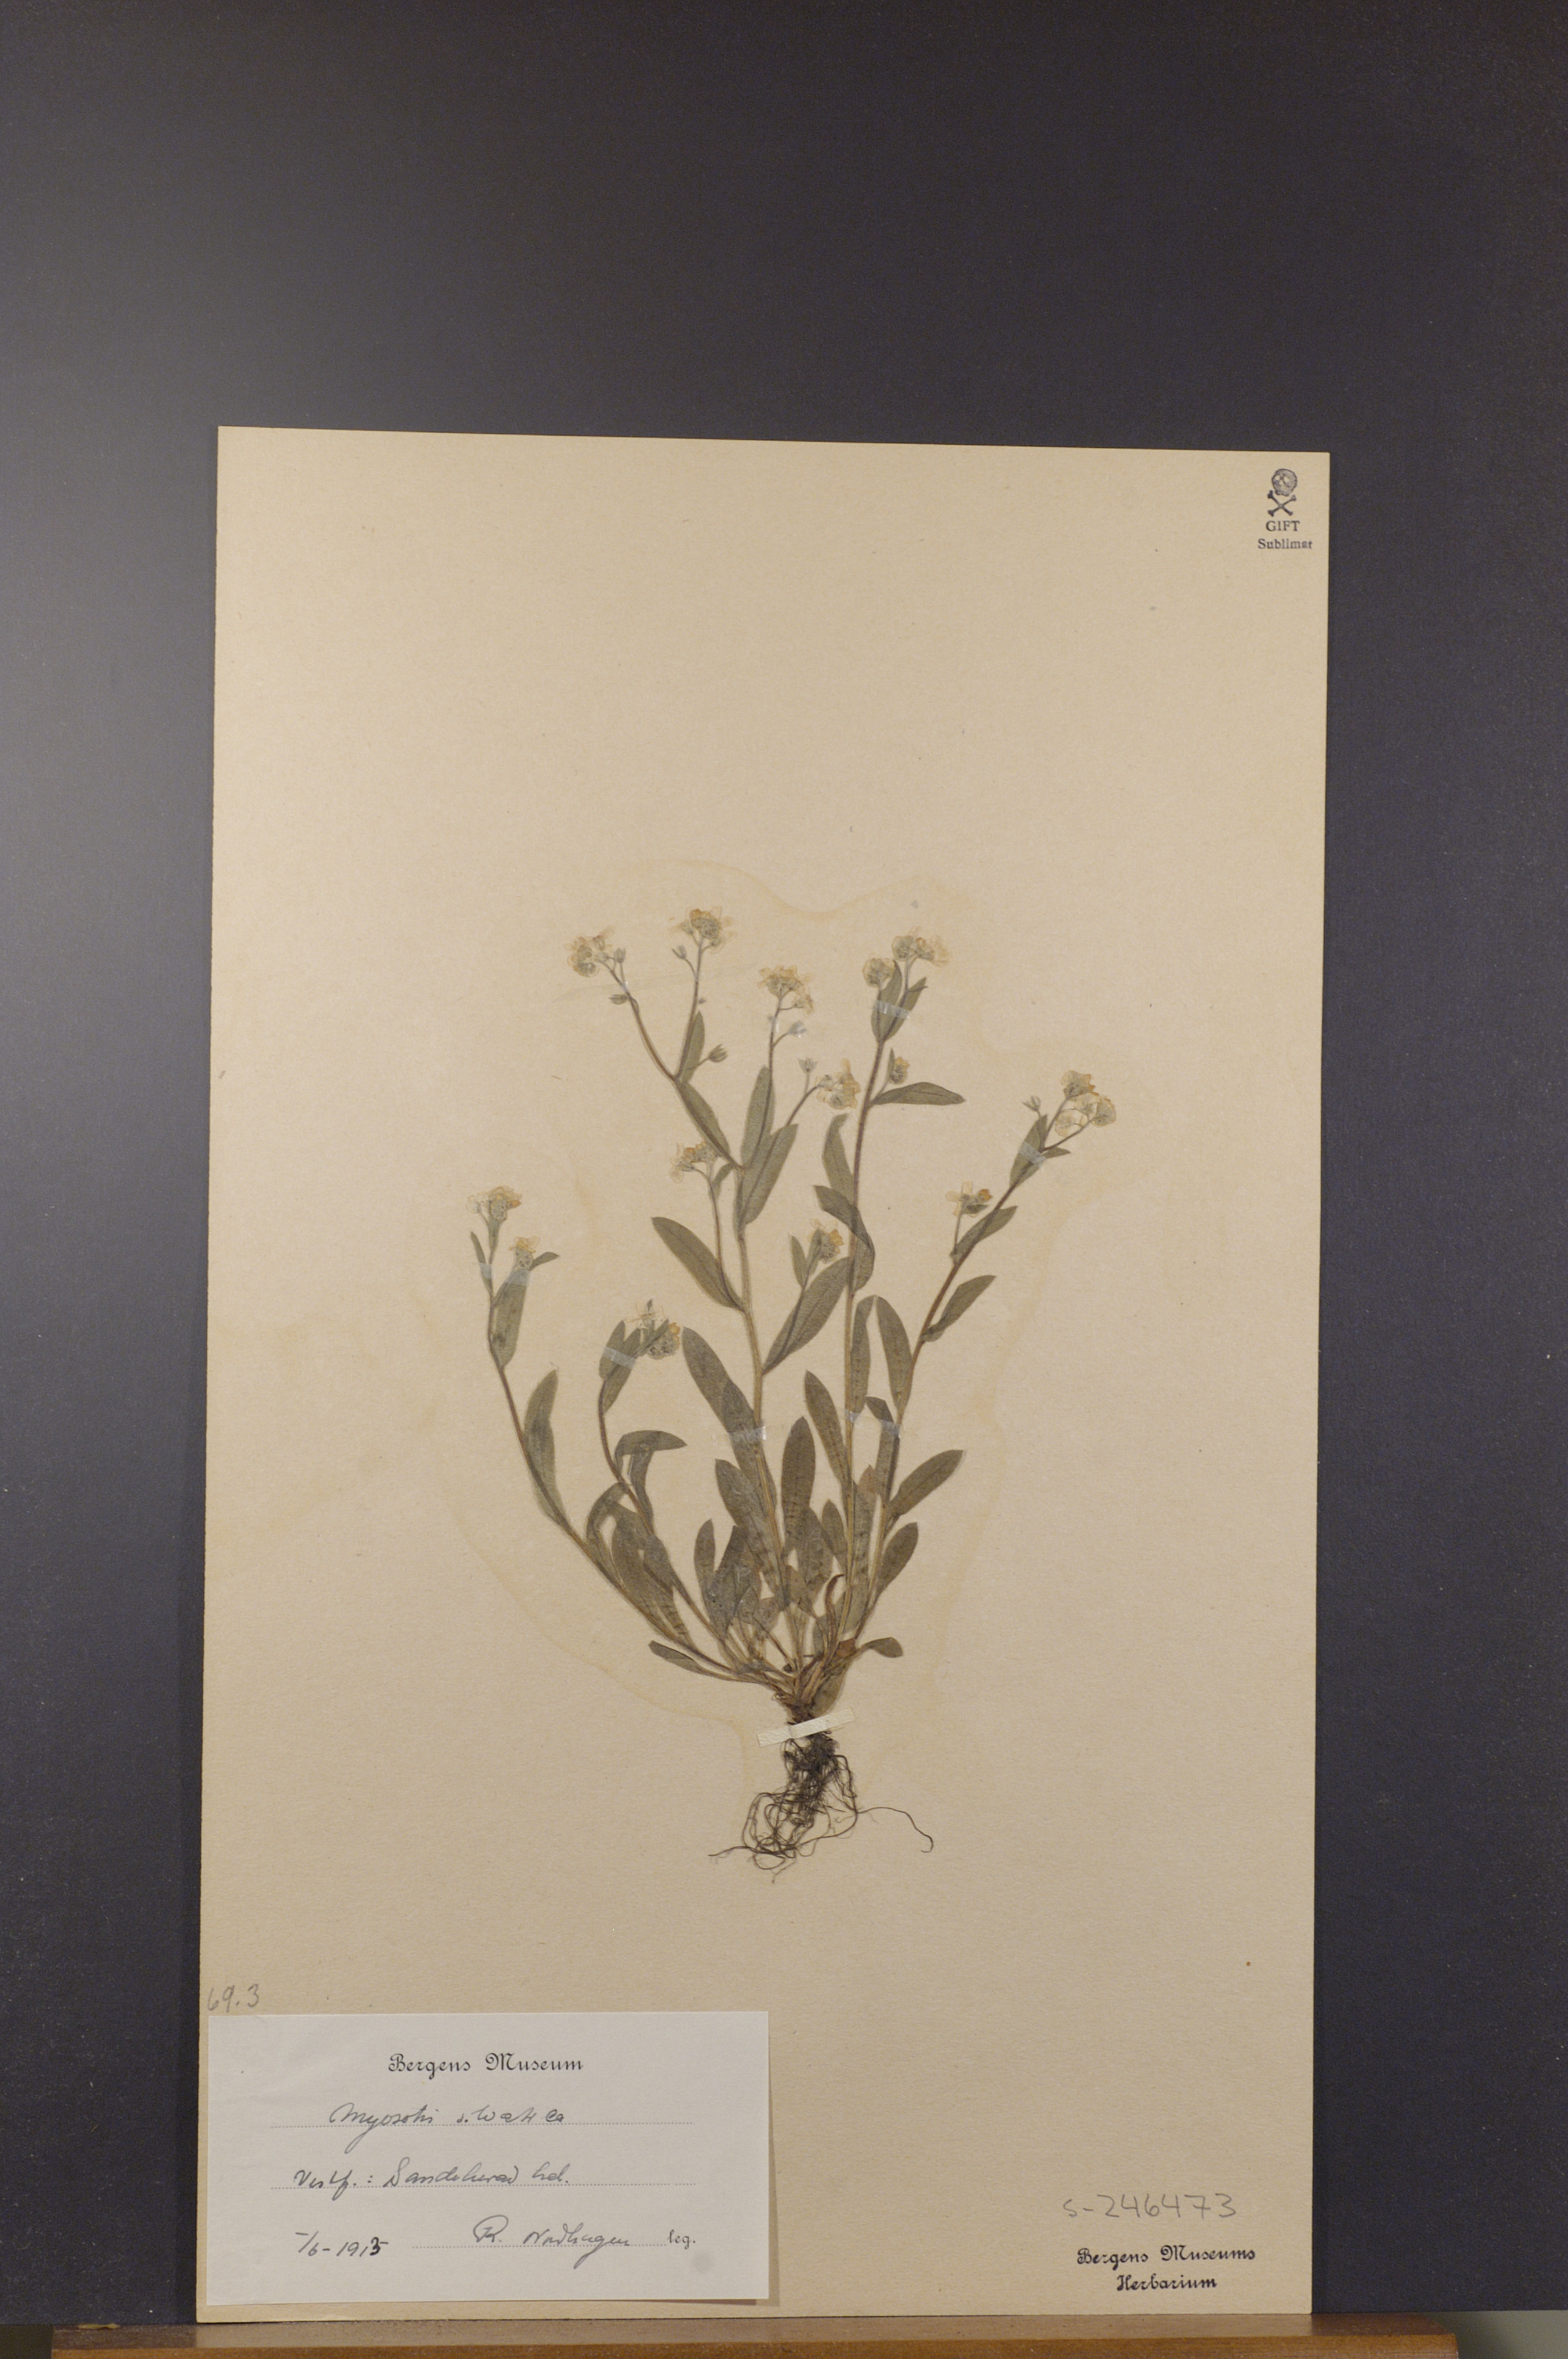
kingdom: Plantae
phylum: Tracheophyta
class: Magnoliopsida
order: Boraginales
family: Boraginaceae
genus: Myosotis
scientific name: Myosotis sylvatica
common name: Wood forget-me-not
